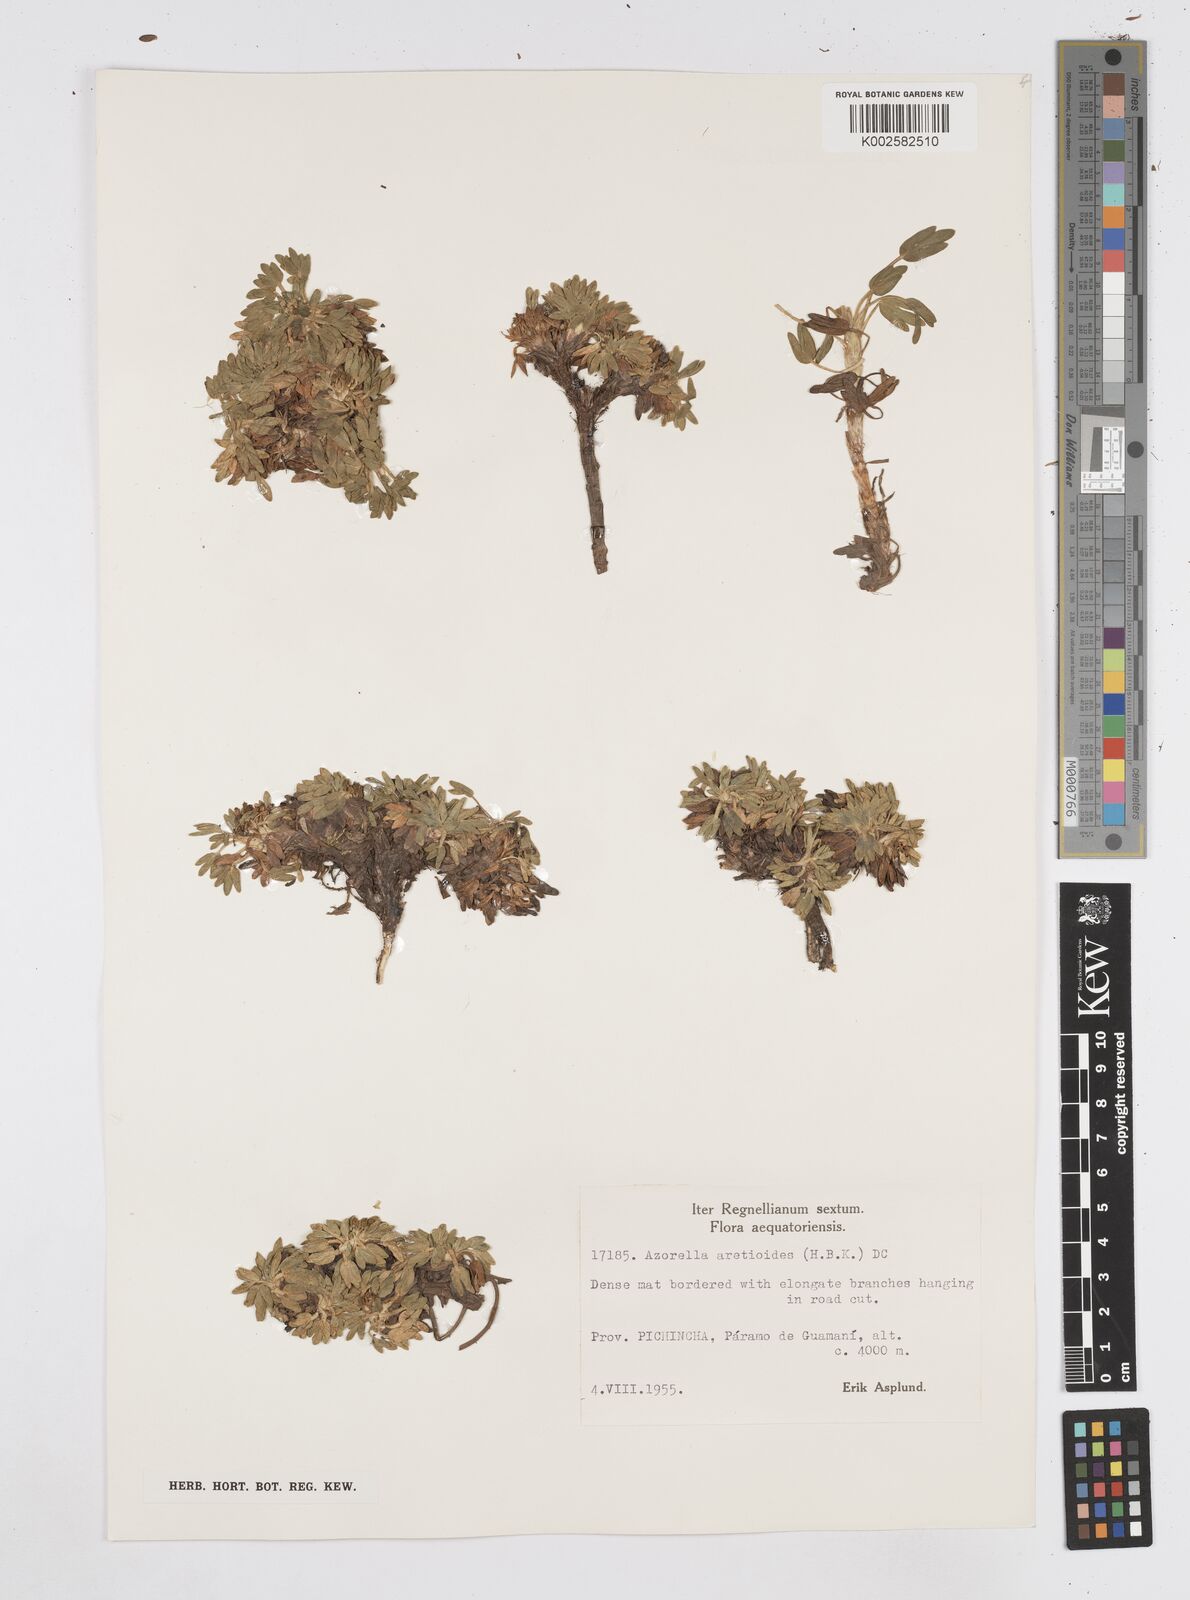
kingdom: Plantae
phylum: Tracheophyta
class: Magnoliopsida
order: Apiales
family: Apiaceae
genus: Azorella
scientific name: Azorella aretioides
